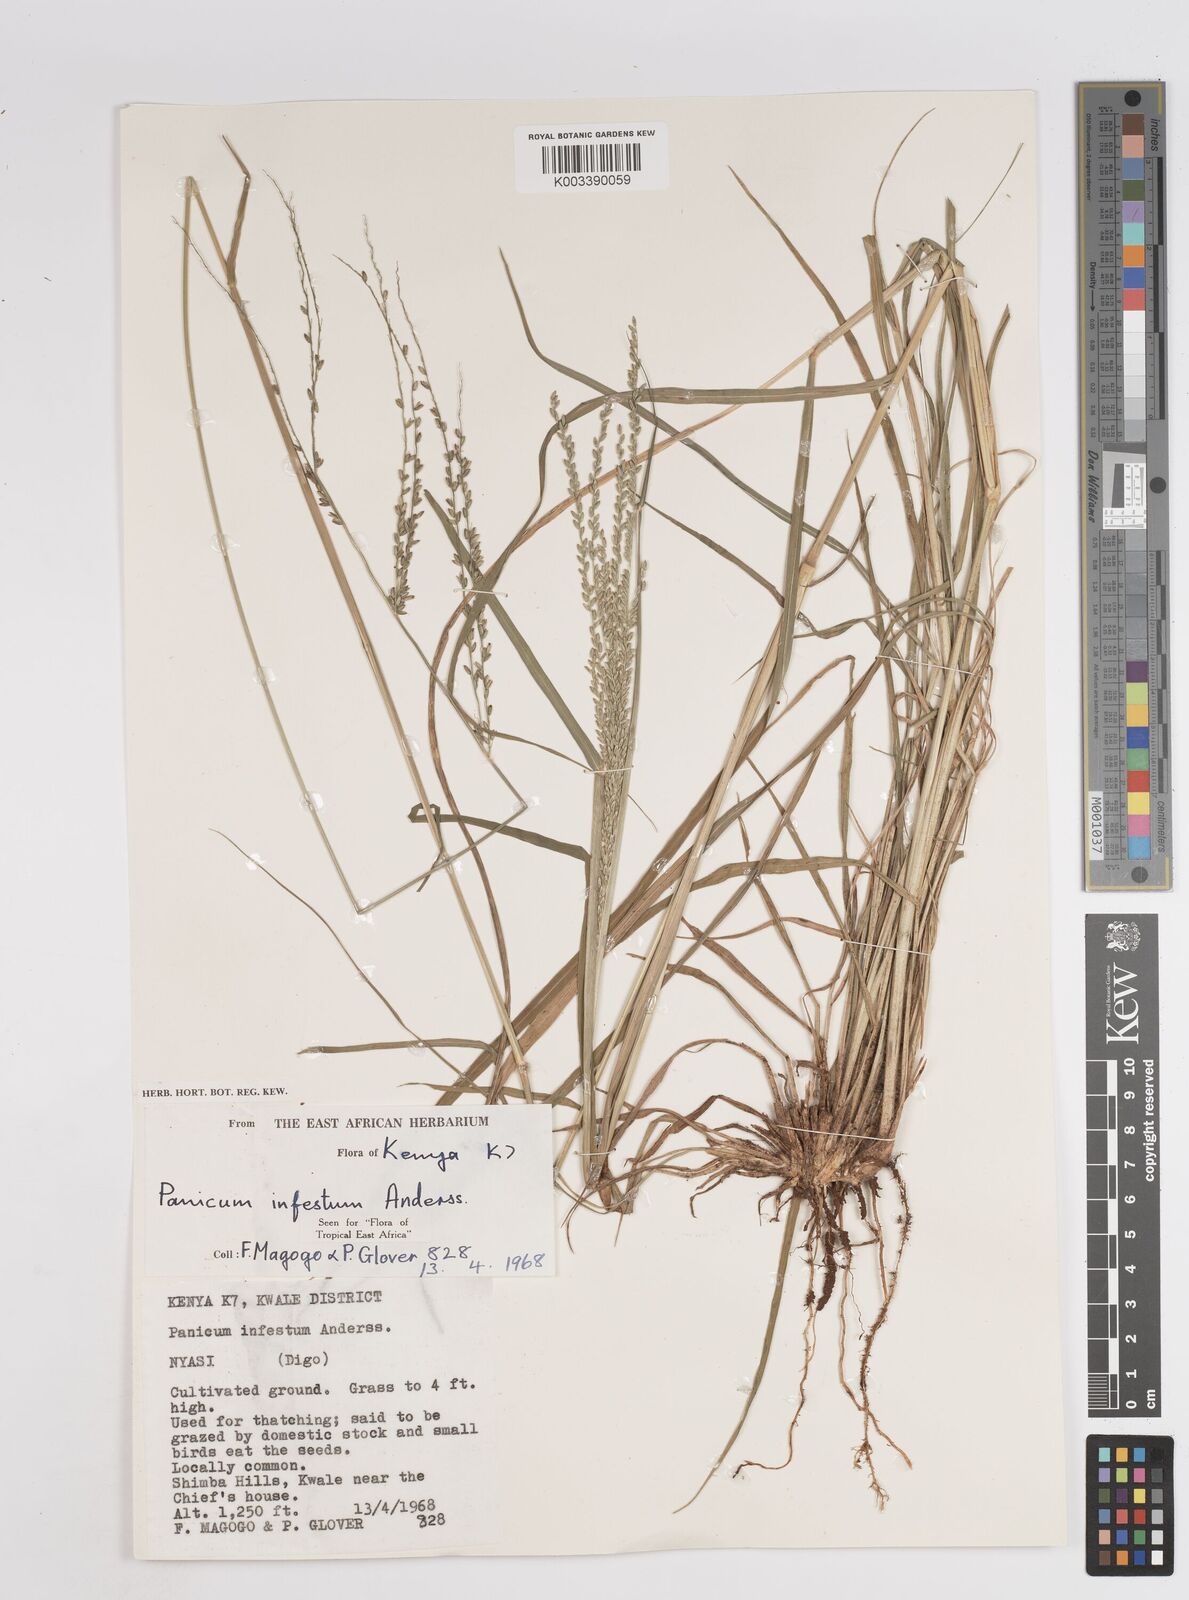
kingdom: Plantae
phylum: Tracheophyta
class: Liliopsida
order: Poales
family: Poaceae
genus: Megathyrsus
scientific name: Megathyrsus infestus
